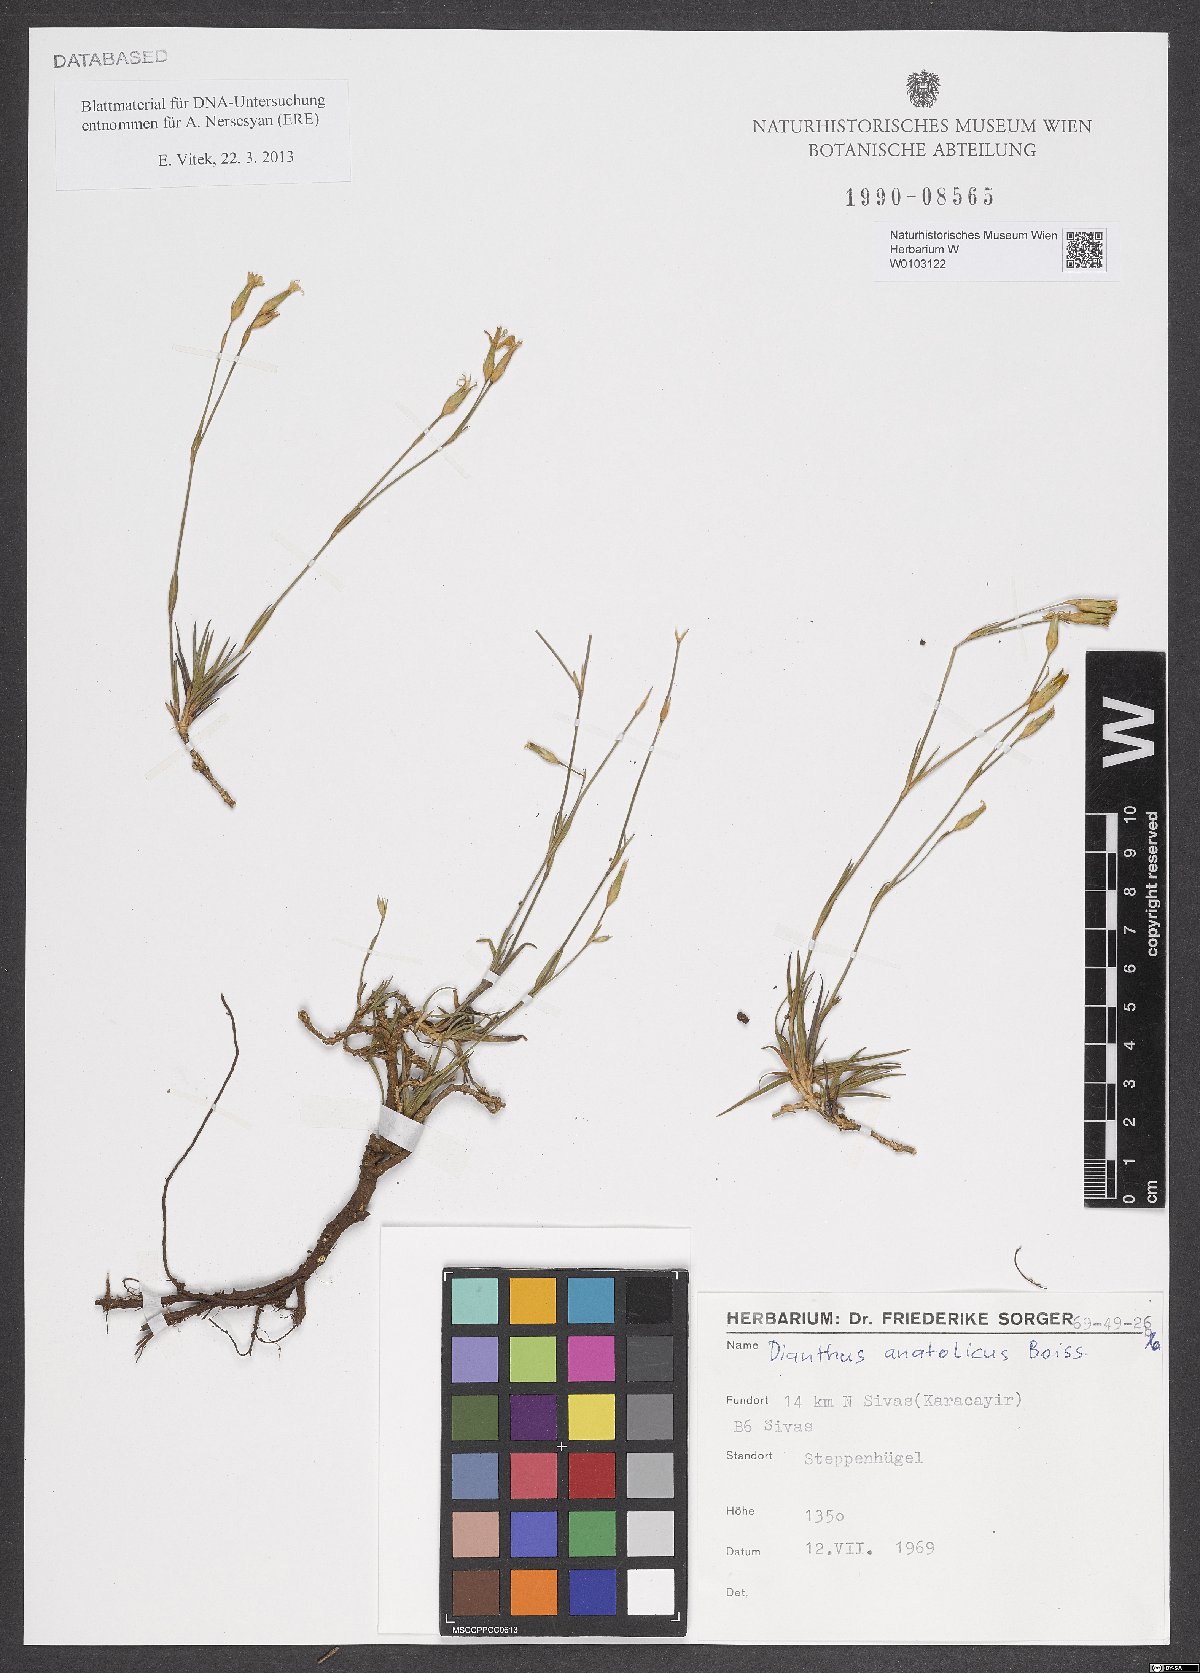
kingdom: Plantae
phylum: Tracheophyta
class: Magnoliopsida
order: Caryophyllales
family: Caryophyllaceae
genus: Dianthus
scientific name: Dianthus anatolicus
